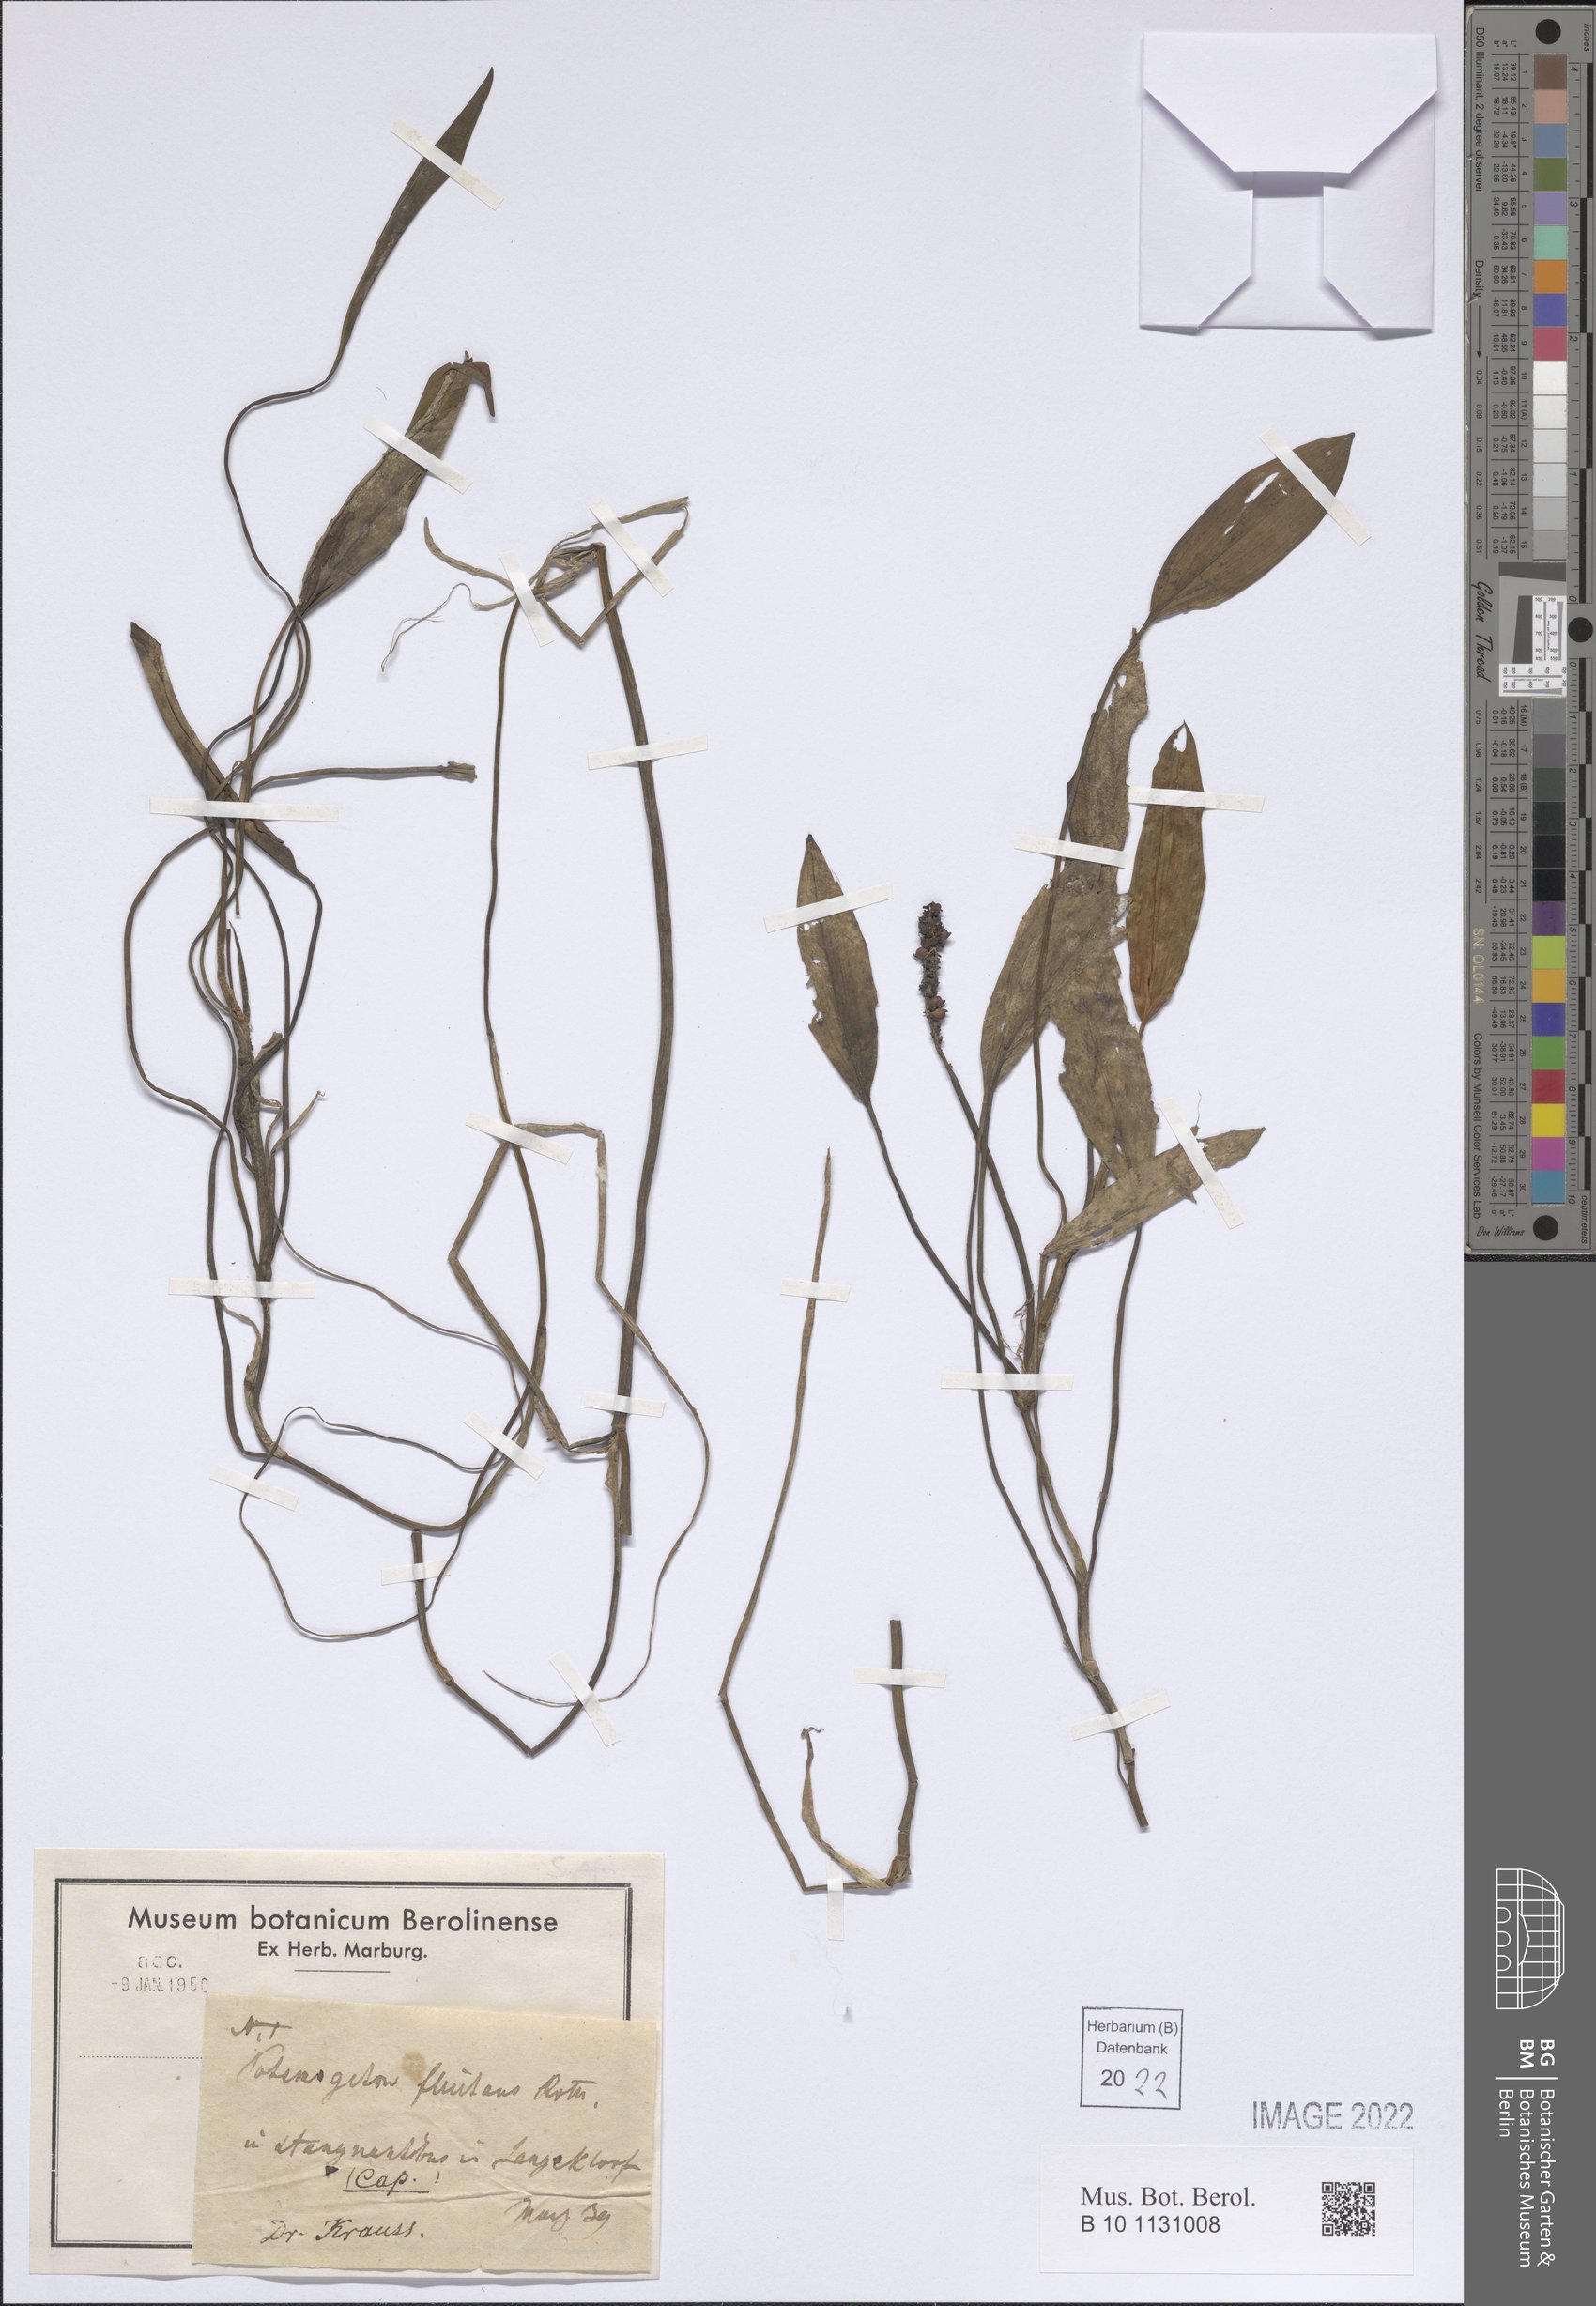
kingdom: Plantae
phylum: Tracheophyta
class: Liliopsida
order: Alismatales
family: Potamogetonaceae
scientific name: Potamogetonaceae
